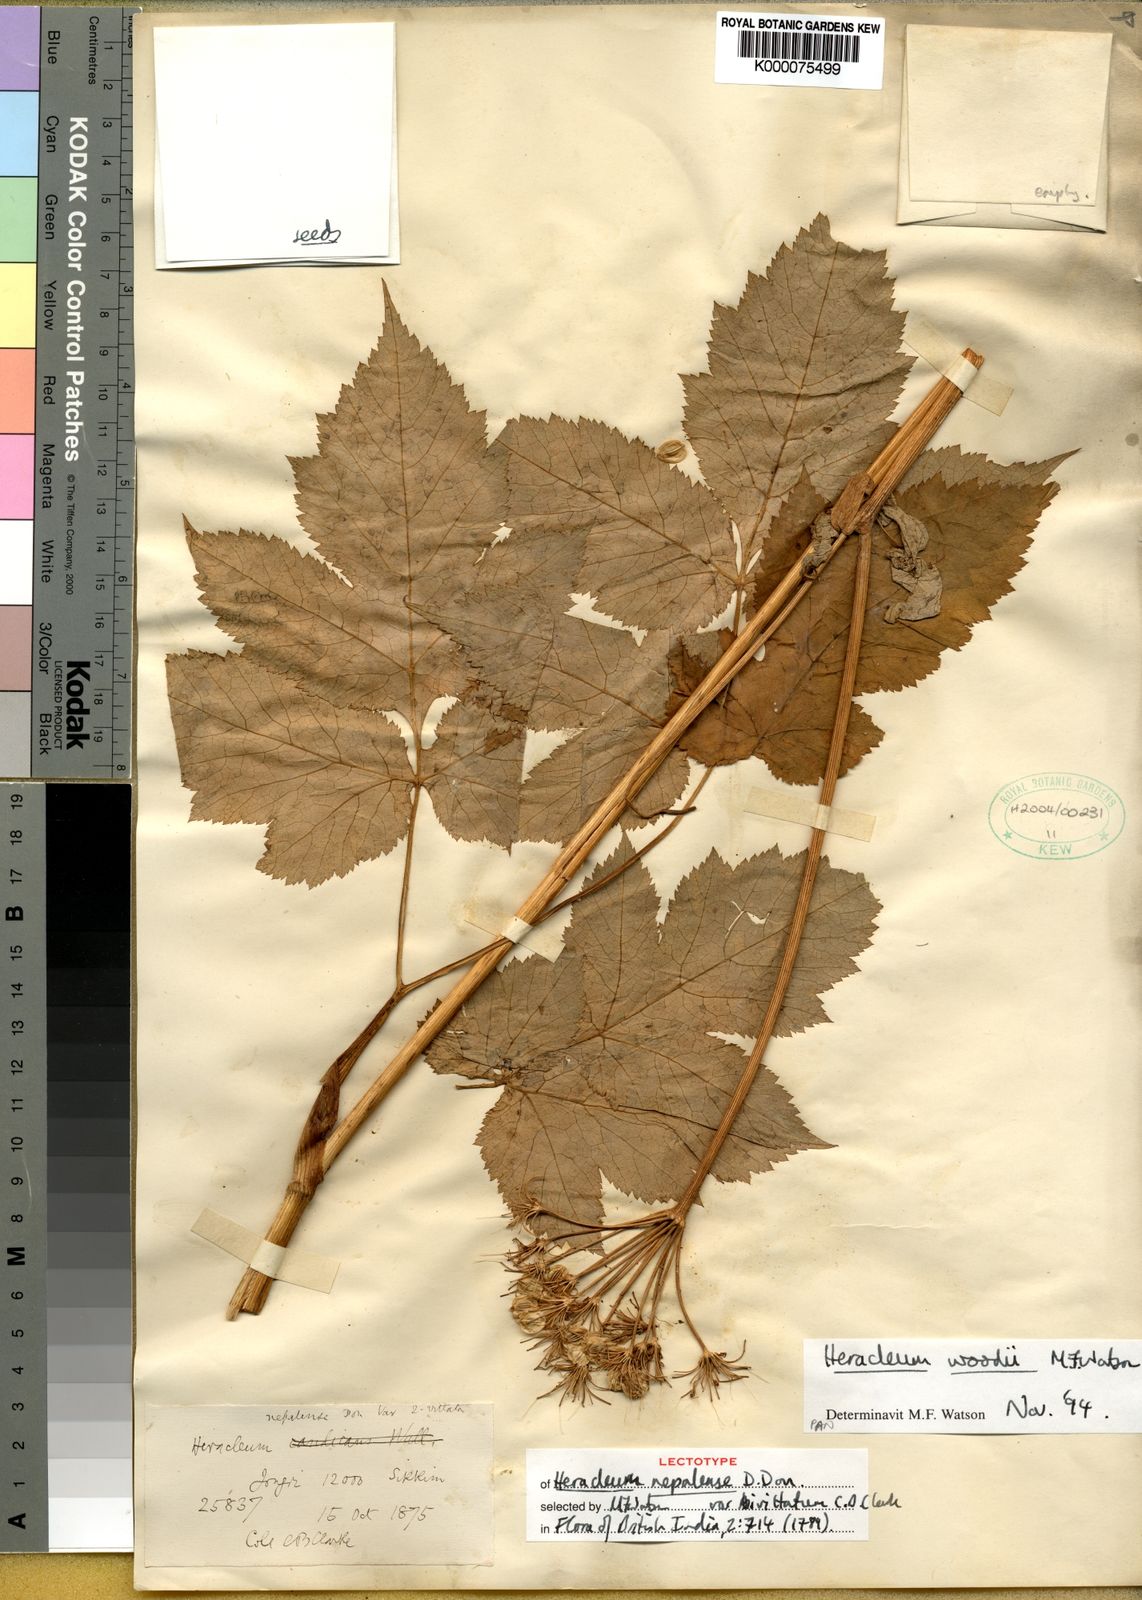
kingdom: Plantae
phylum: Tracheophyta
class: Magnoliopsida
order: Apiales
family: Apiaceae
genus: Tetrataenium
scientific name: Tetrataenium nepalense
